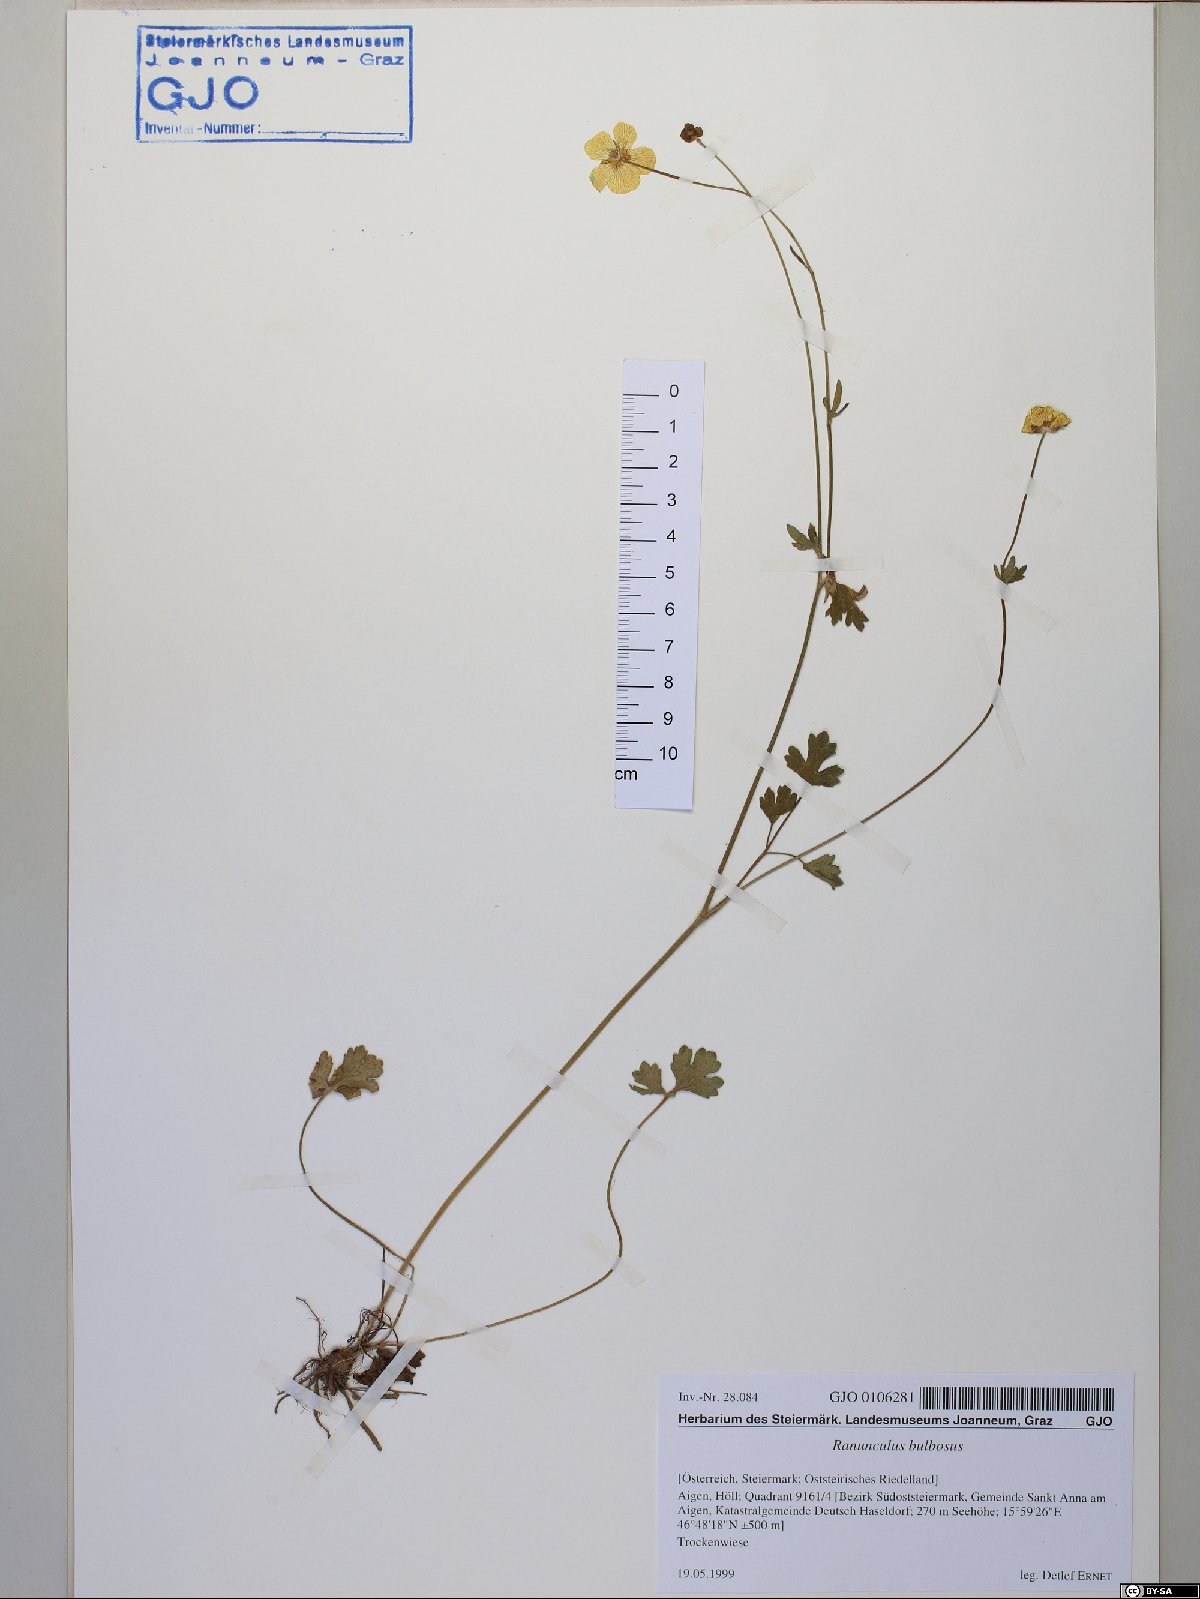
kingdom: Plantae
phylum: Tracheophyta
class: Magnoliopsida
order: Ranunculales
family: Ranunculaceae
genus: Ranunculus
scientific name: Ranunculus bulbosus
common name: Bulbous buttercup
